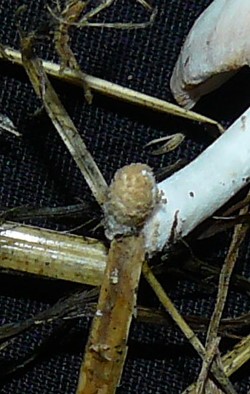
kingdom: Fungi
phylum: Basidiomycota
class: Agaricomycetes
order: Agaricales
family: Psathyrellaceae
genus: Coprinopsis
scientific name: Coprinopsis
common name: blækhat
